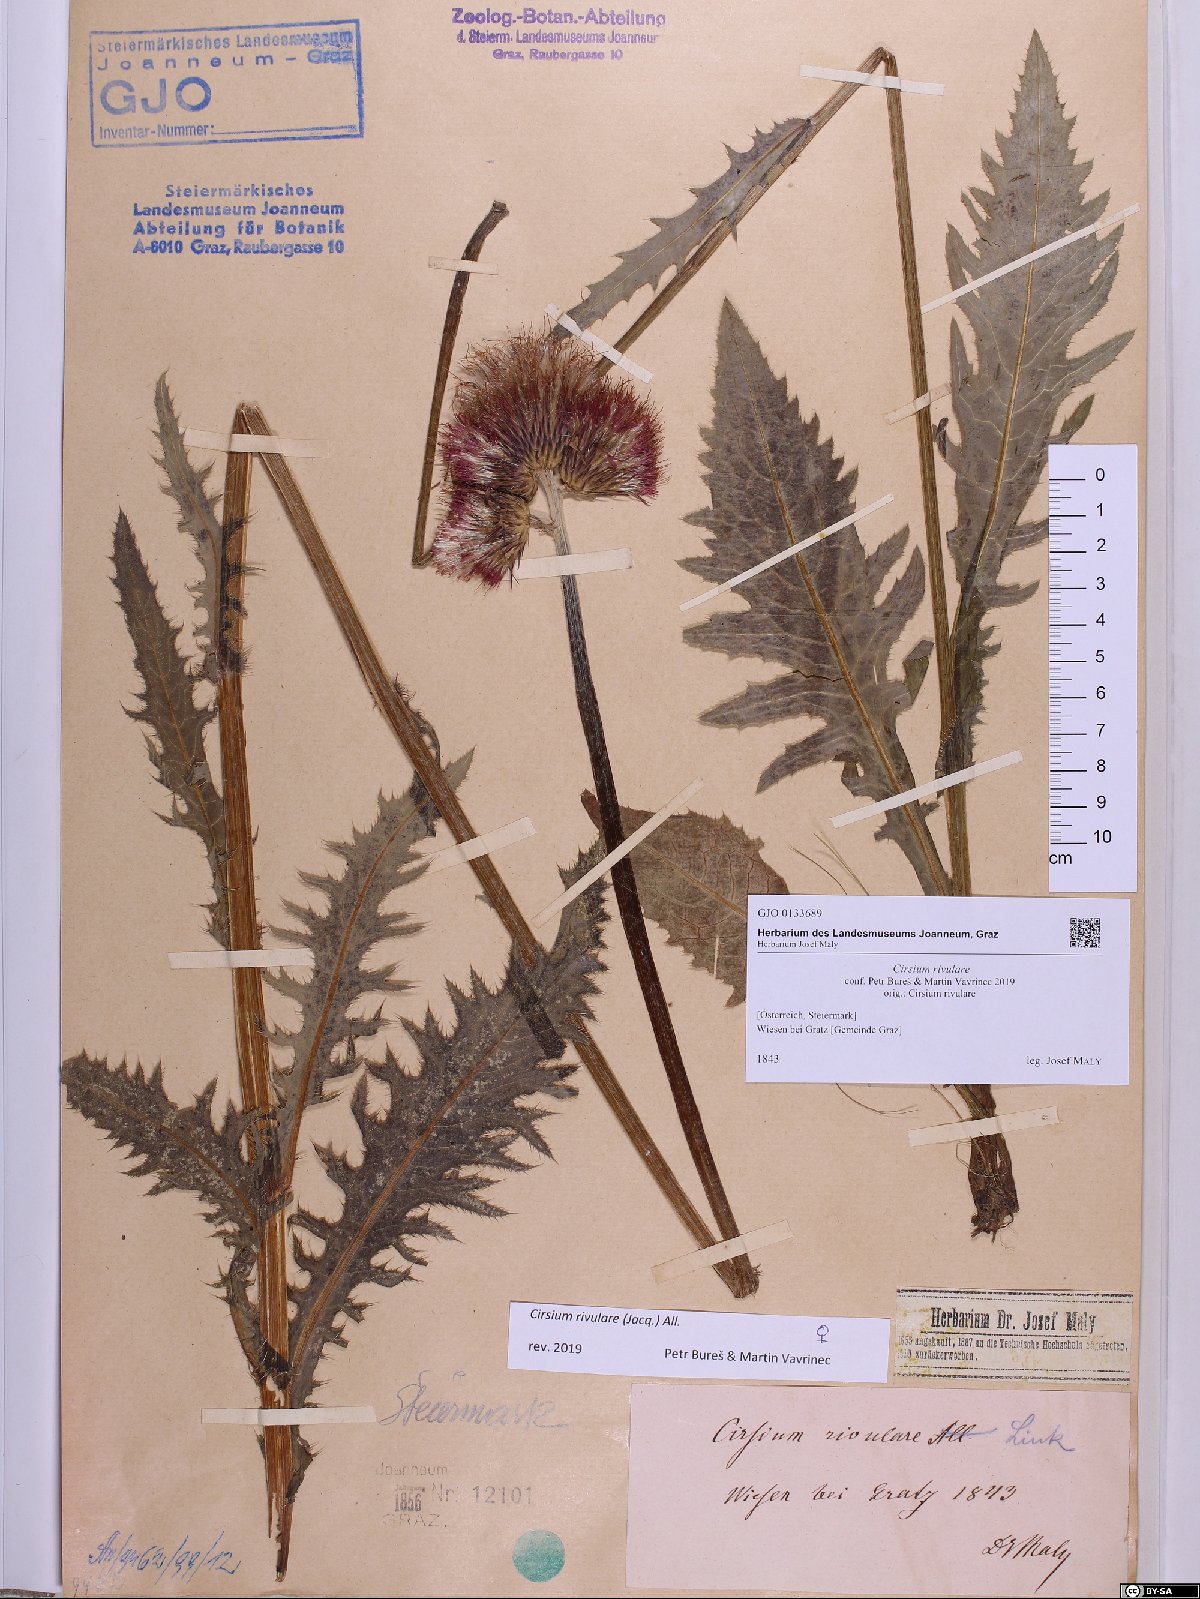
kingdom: Plantae
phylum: Tracheophyta
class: Magnoliopsida
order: Asterales
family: Asteraceae
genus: Cirsium
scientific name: Cirsium rivulare
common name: Brook thistle
